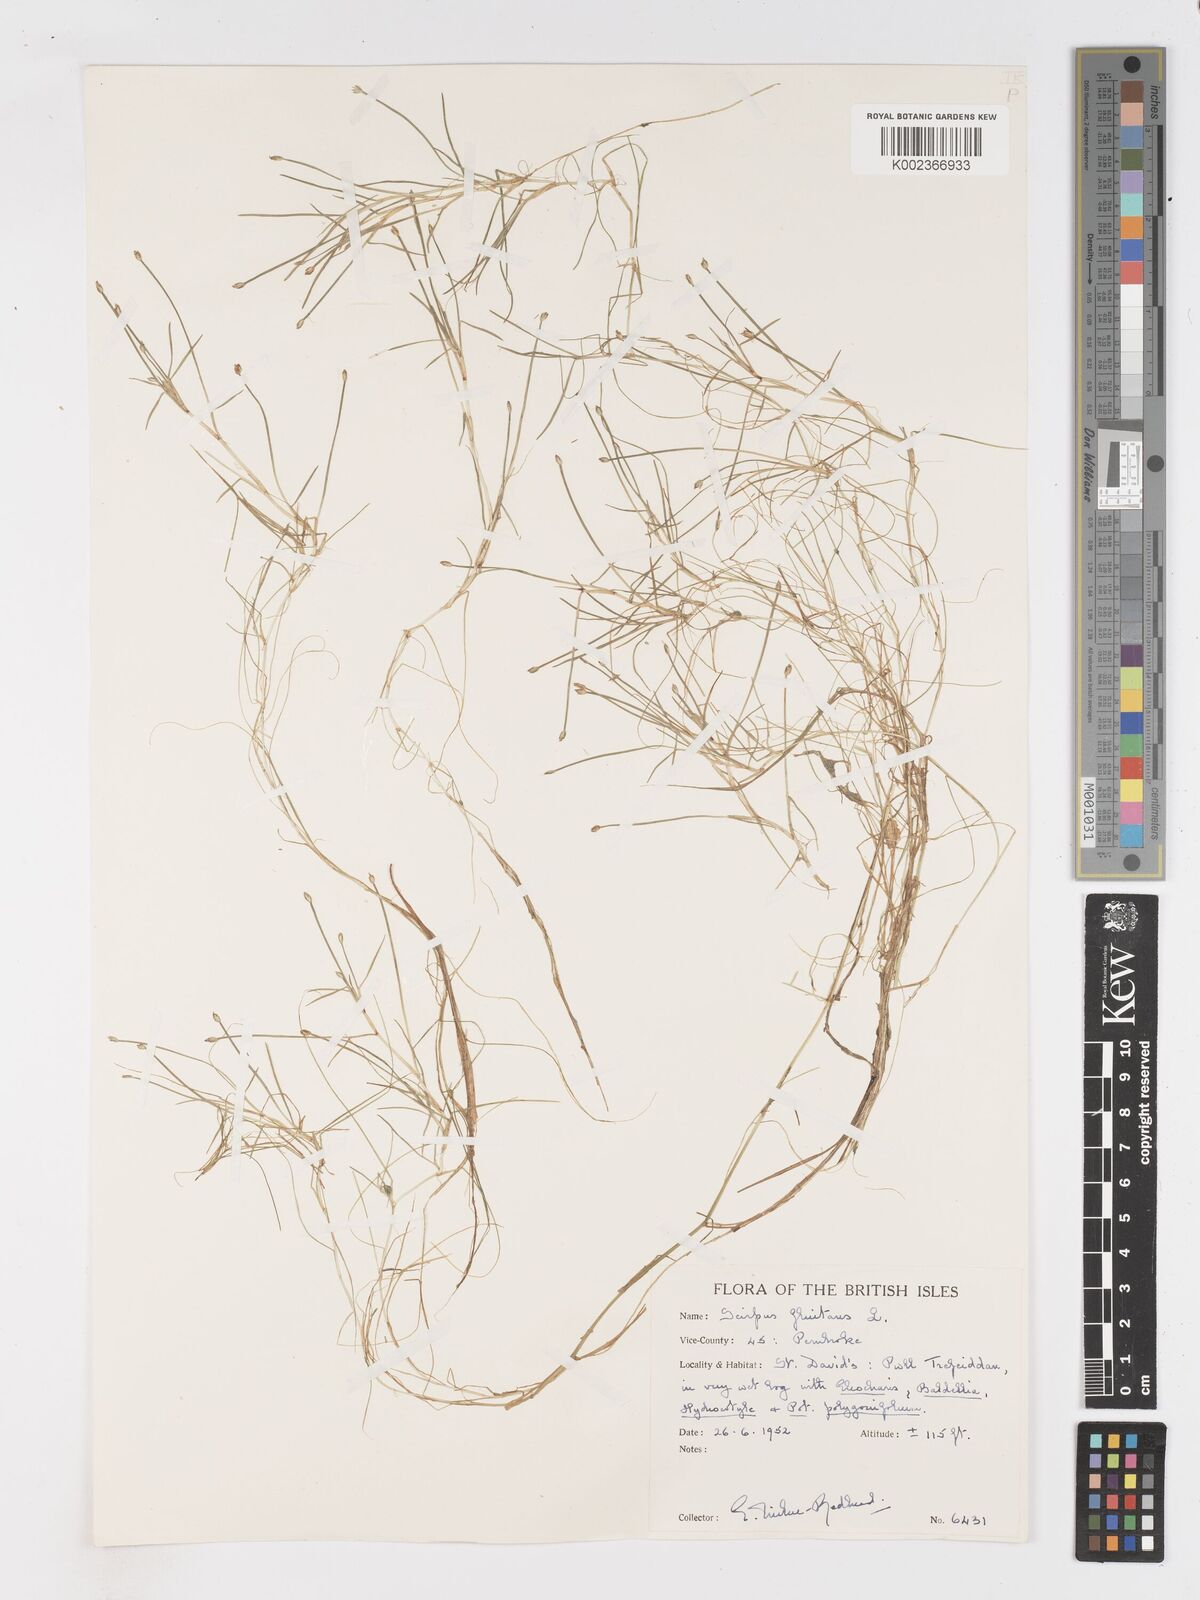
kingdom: Plantae
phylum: Tracheophyta
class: Liliopsida
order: Poales
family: Cyperaceae
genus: Isolepis
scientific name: Isolepis fluitans
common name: Floating club-rush
